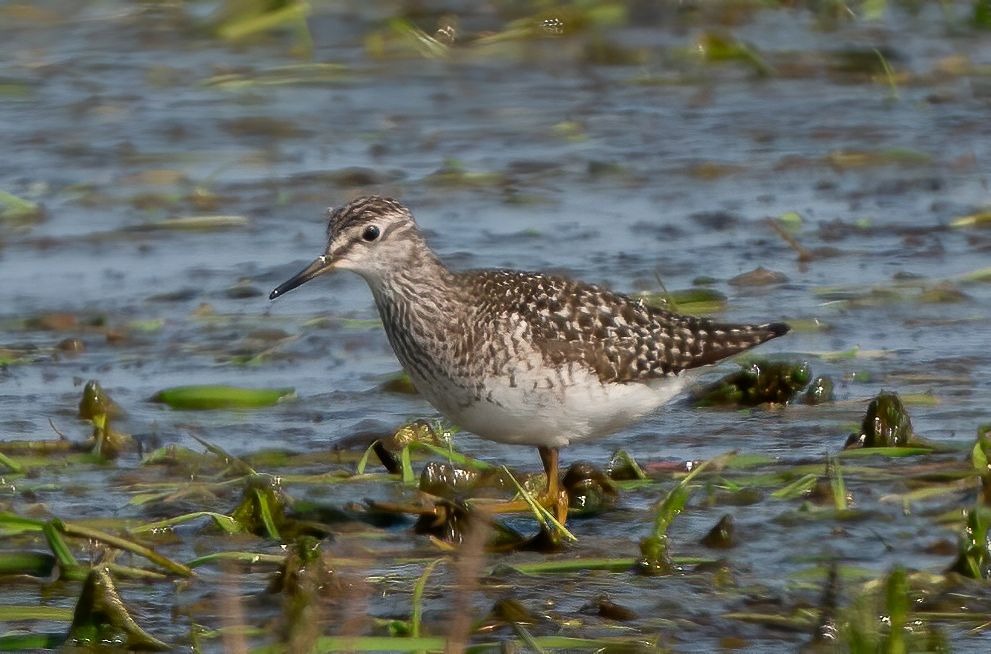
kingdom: Animalia
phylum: Chordata
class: Aves
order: Charadriiformes
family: Scolopacidae
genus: Tringa
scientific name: Tringa glareola
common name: Tinksmed
